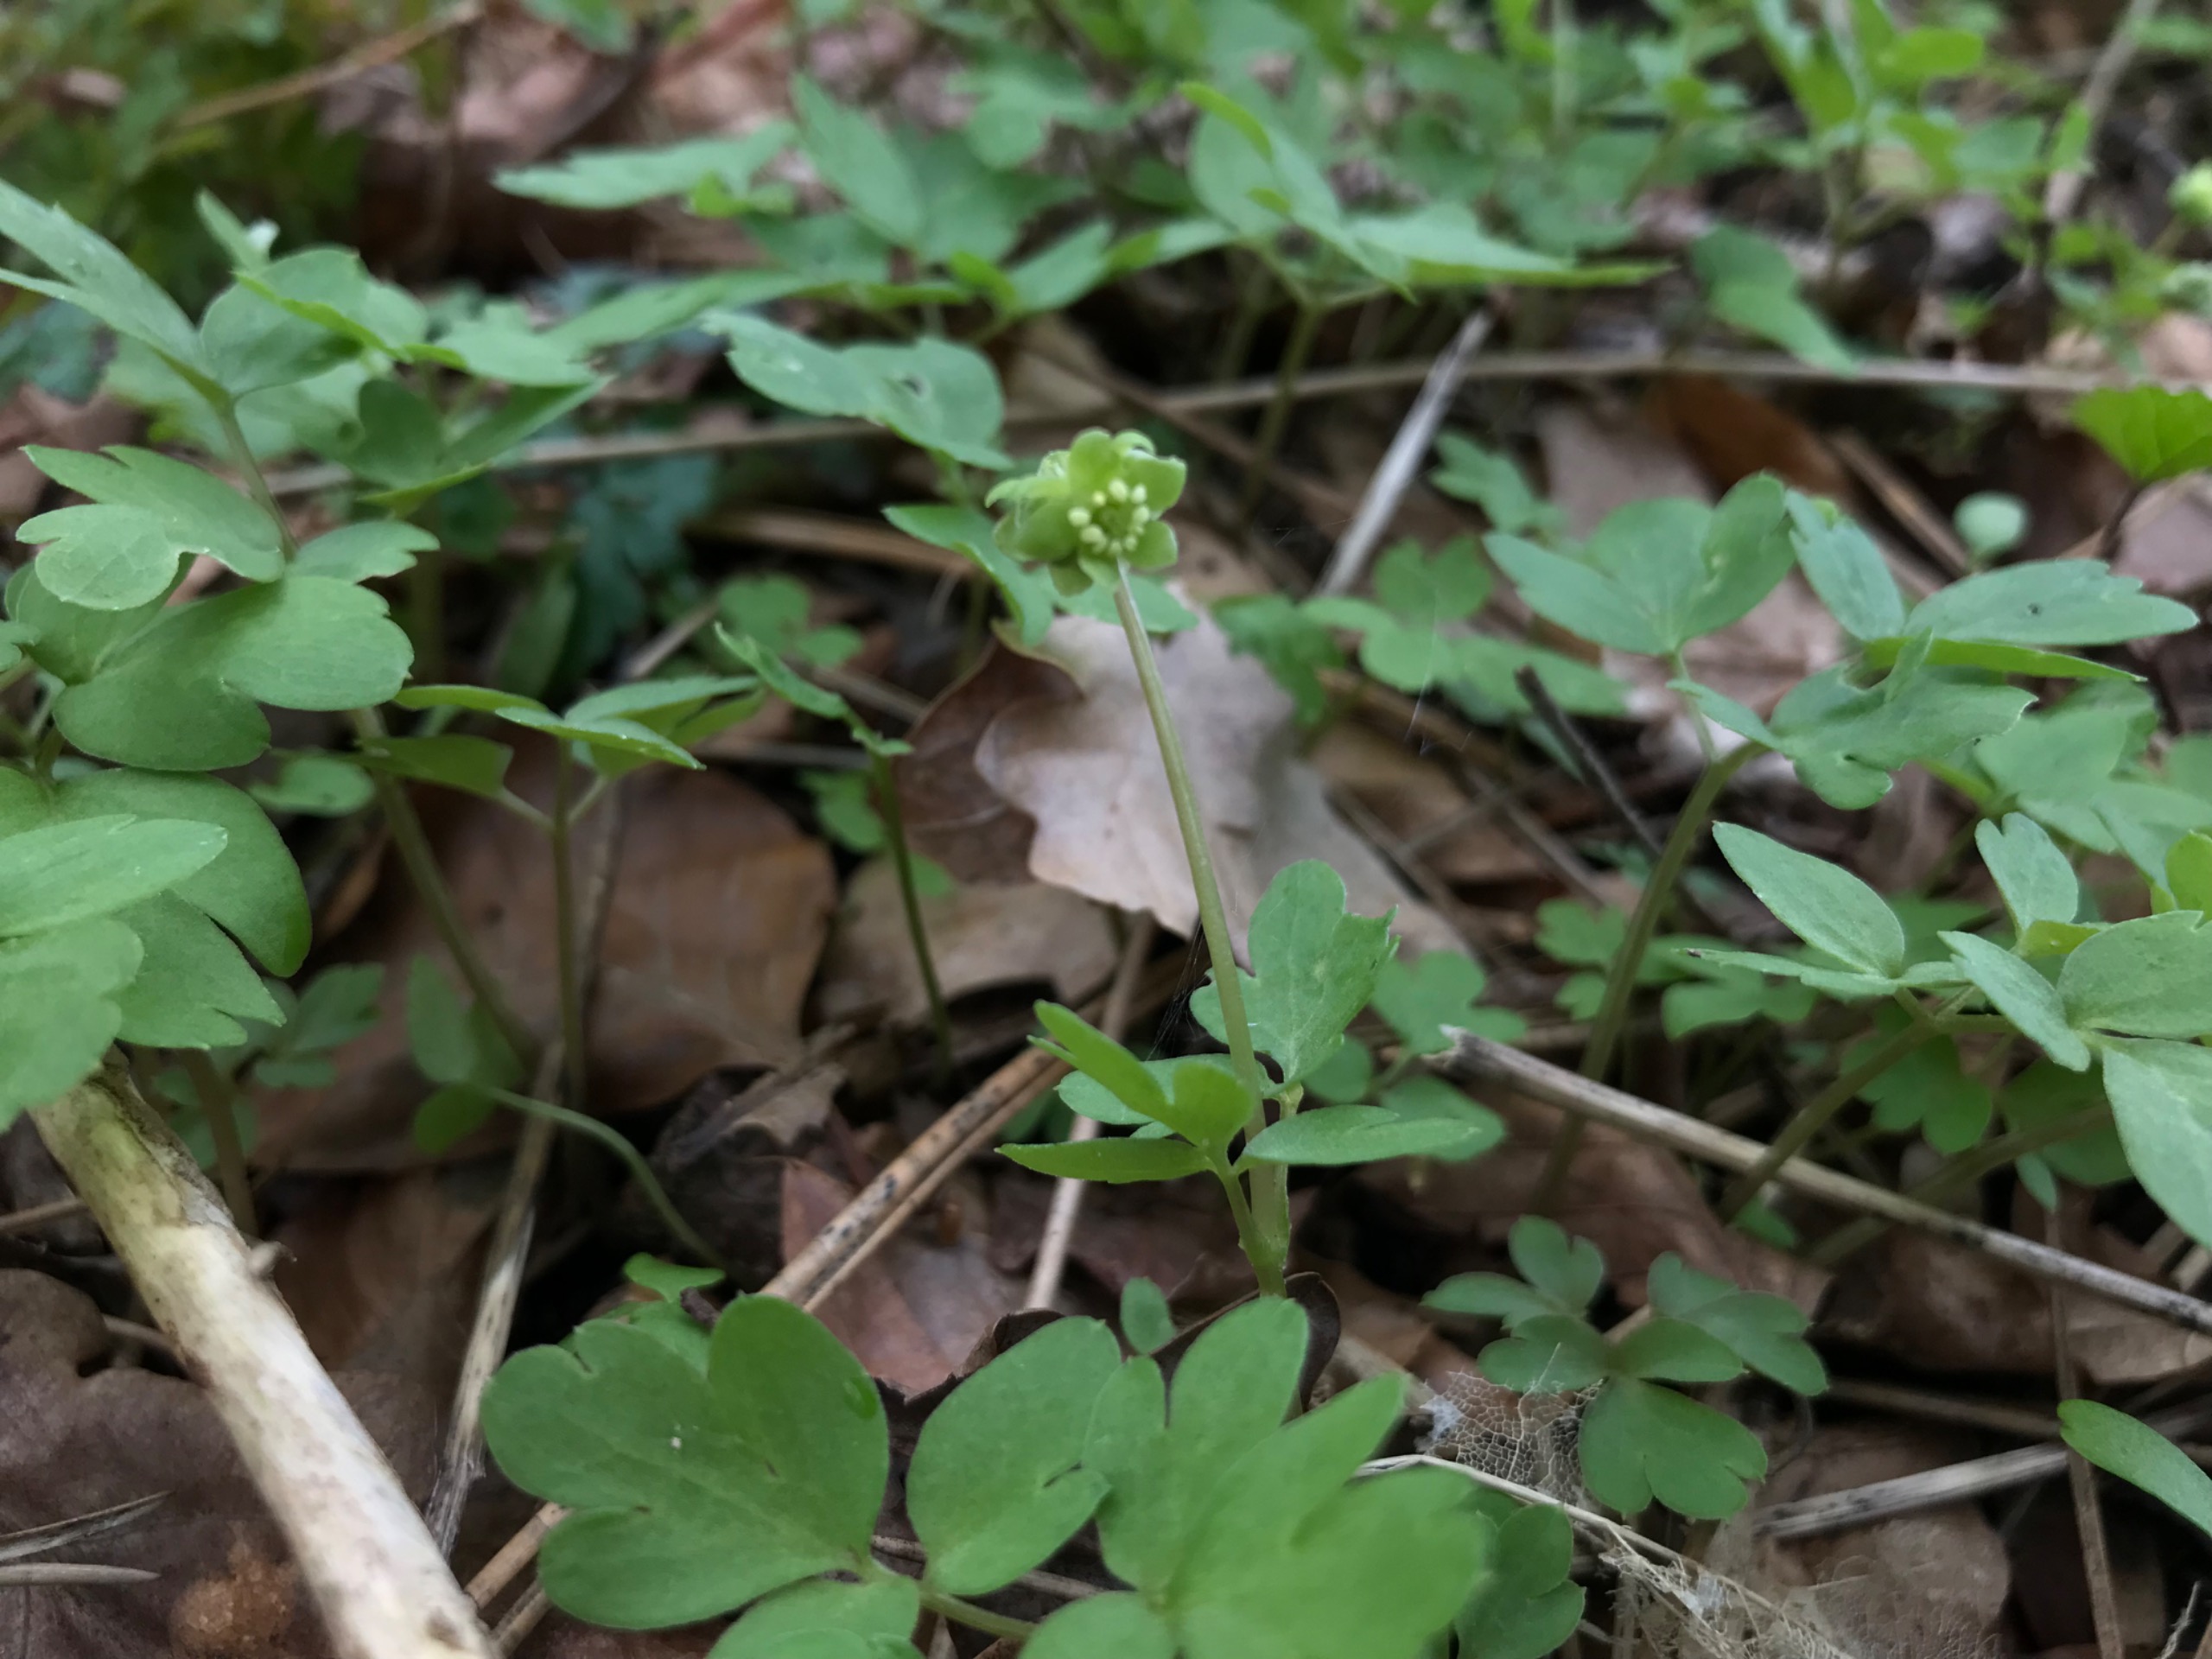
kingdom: Plantae
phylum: Tracheophyta
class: Magnoliopsida
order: Dipsacales
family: Viburnaceae
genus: Adoxa
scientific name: Adoxa moschatellina
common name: Desmerurt
